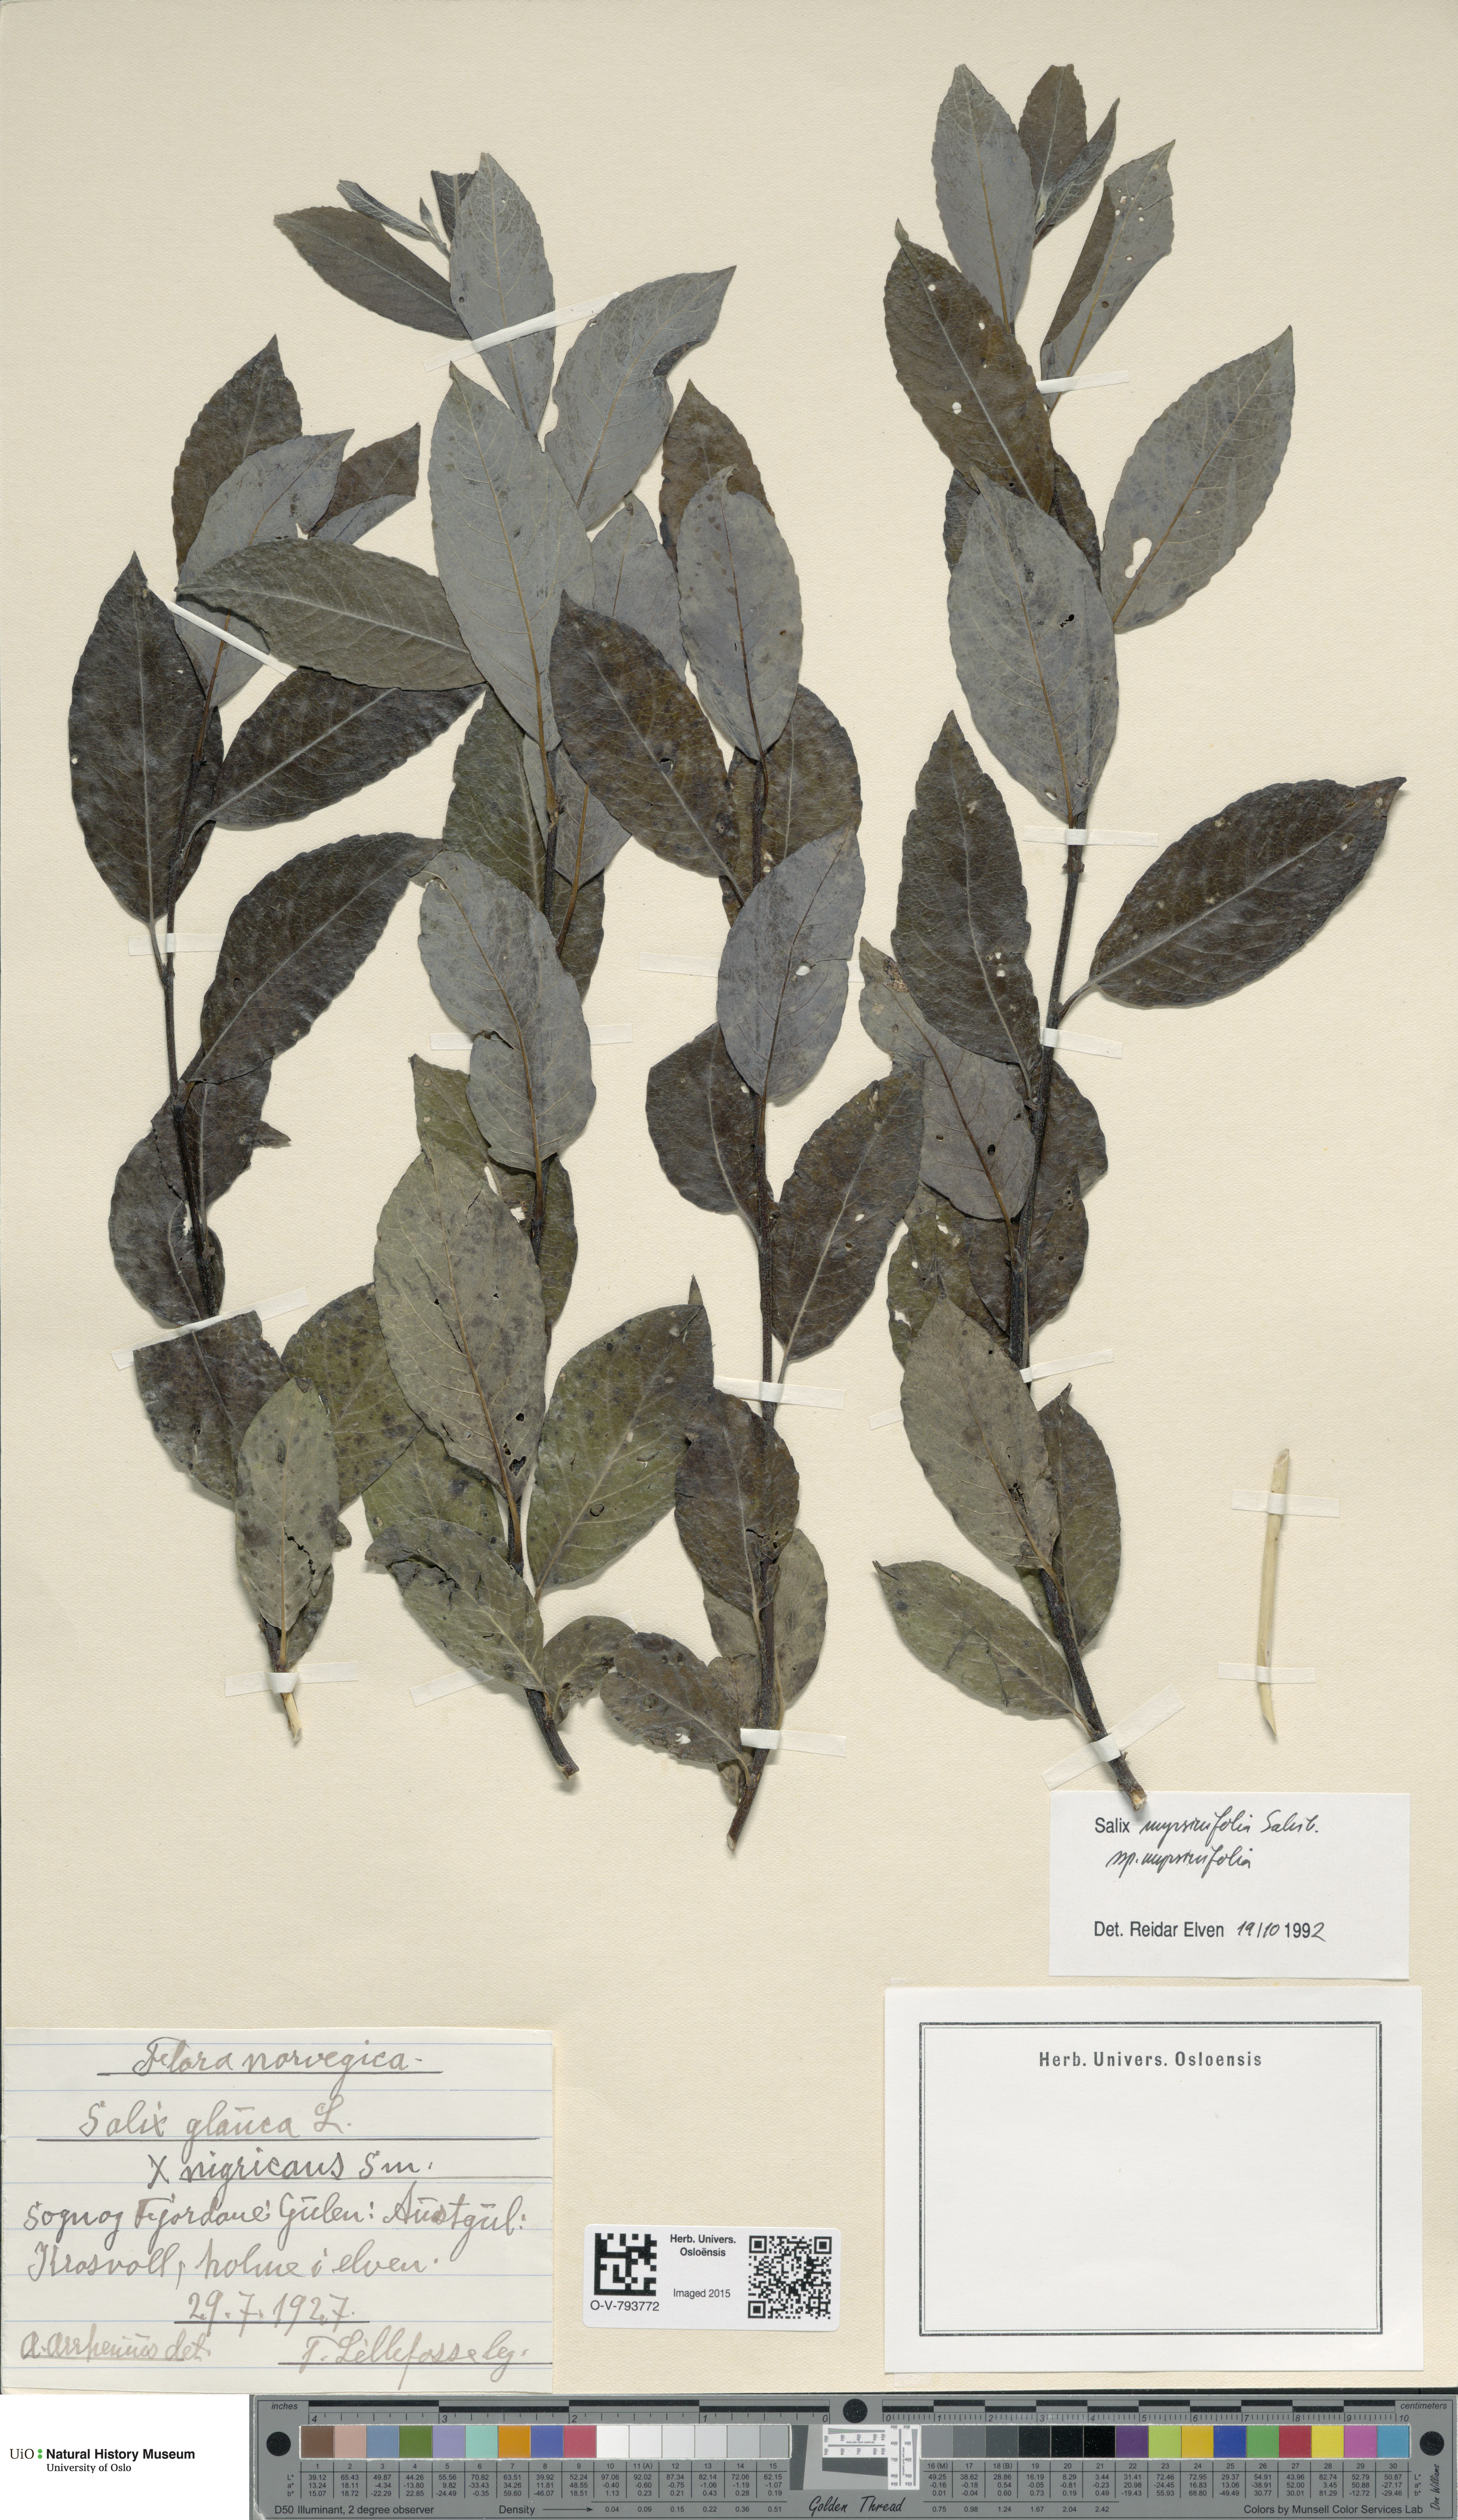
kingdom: Plantae
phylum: Tracheophyta
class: Magnoliopsida
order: Malpighiales
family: Salicaceae
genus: Salix
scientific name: Salix myrsinifolia
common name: Dark-leaved willow
